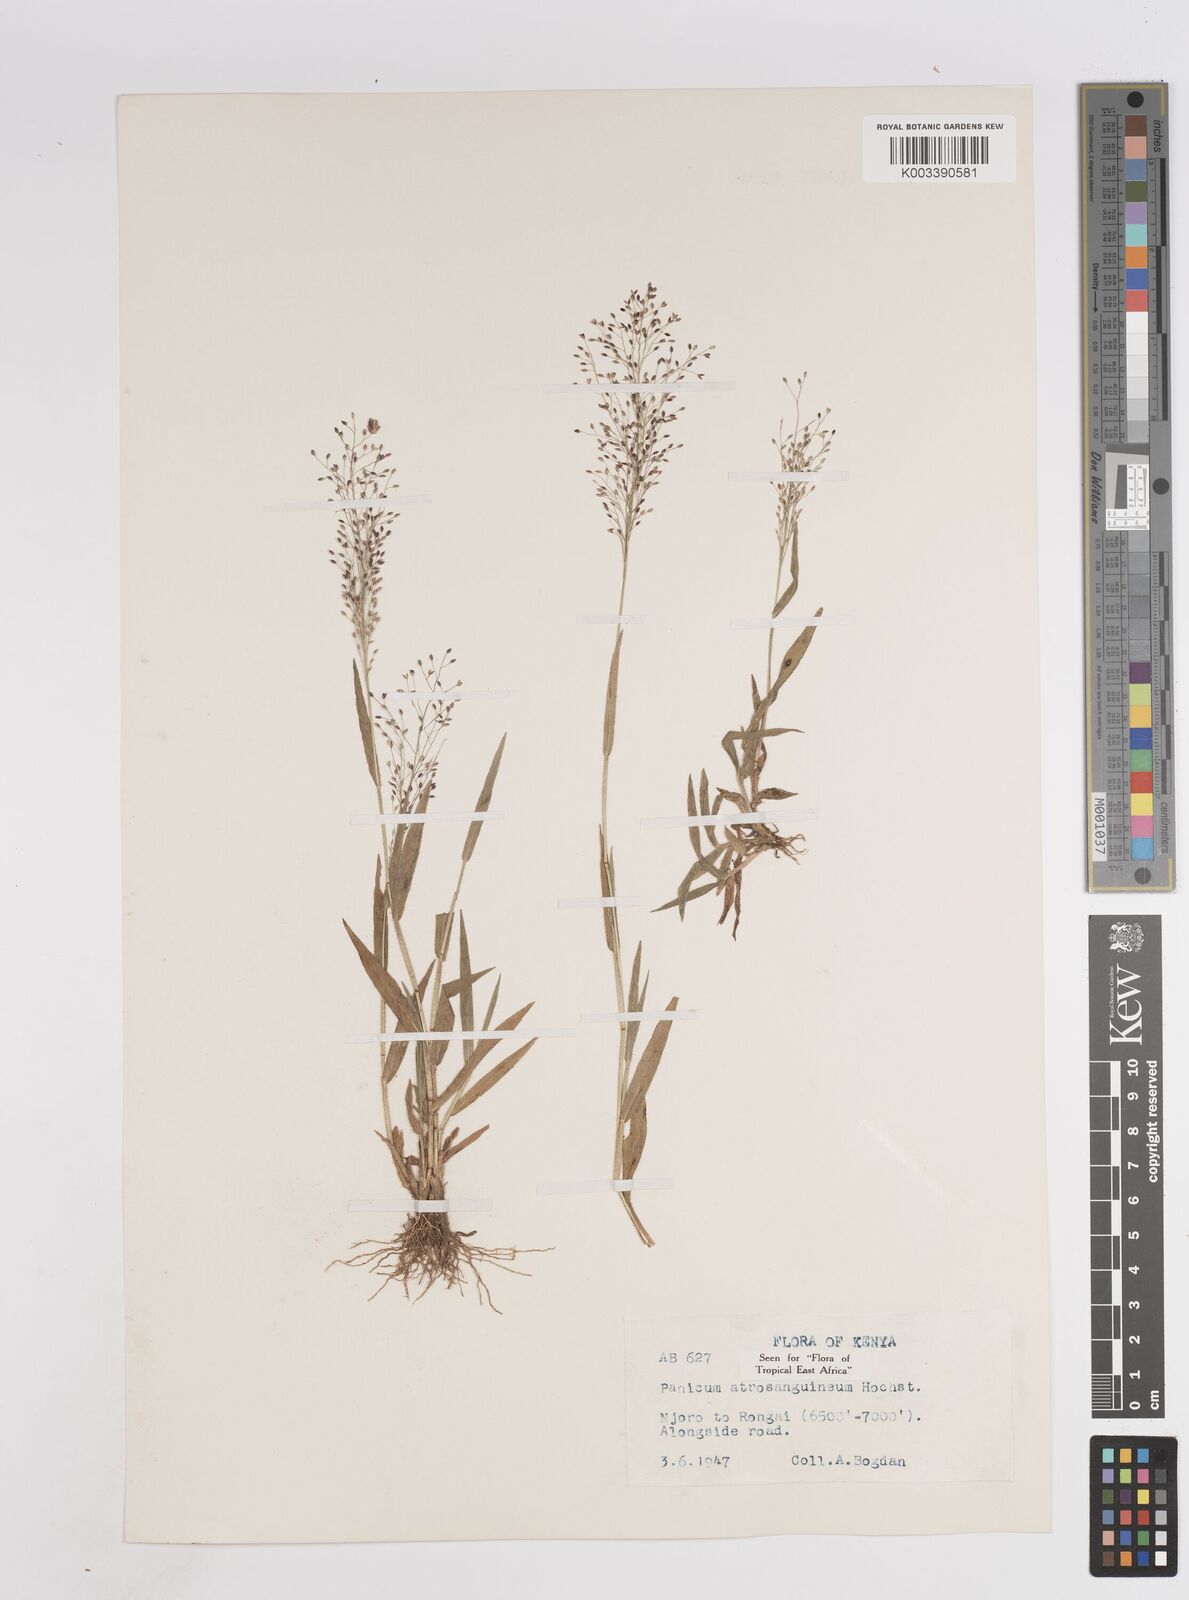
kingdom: Plantae
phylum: Tracheophyta
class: Liliopsida
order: Poales
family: Poaceae
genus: Panicum
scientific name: Panicum atrosanguineum
